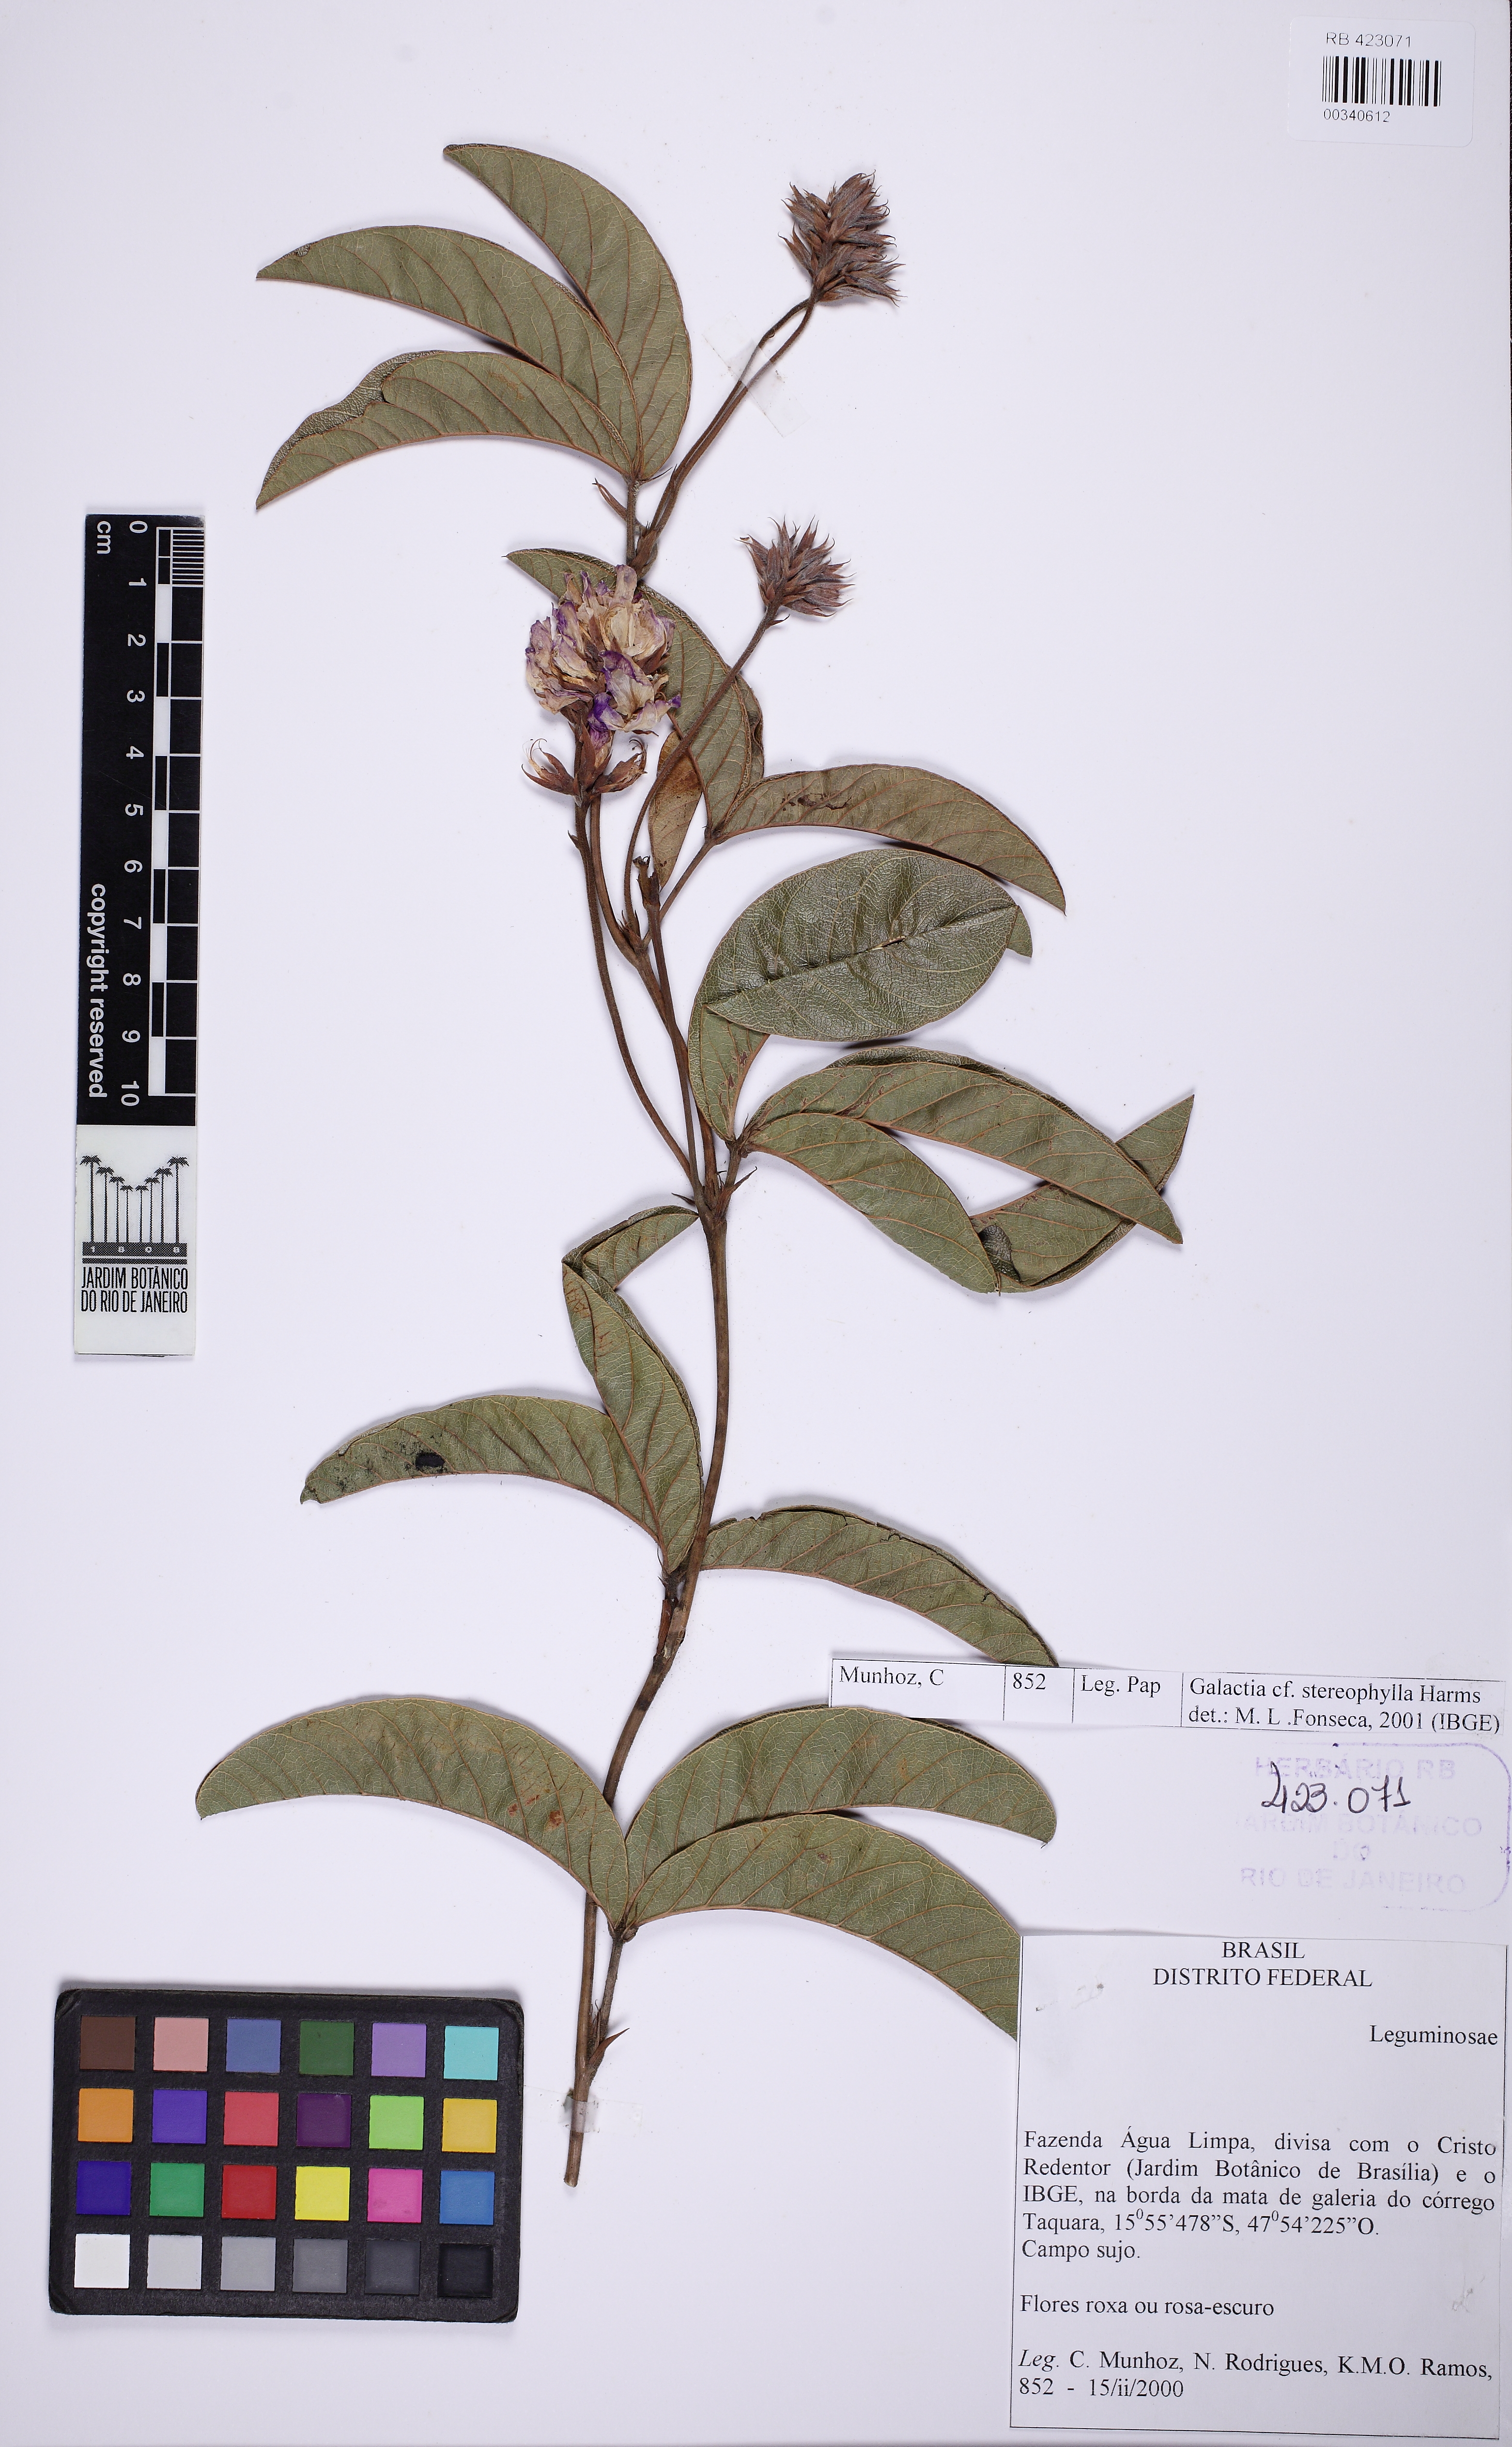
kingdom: Plantae
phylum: Tracheophyta
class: Magnoliopsida
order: Fabales
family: Fabaceae
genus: Betencourtia
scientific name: Betencourtia stereophylla
